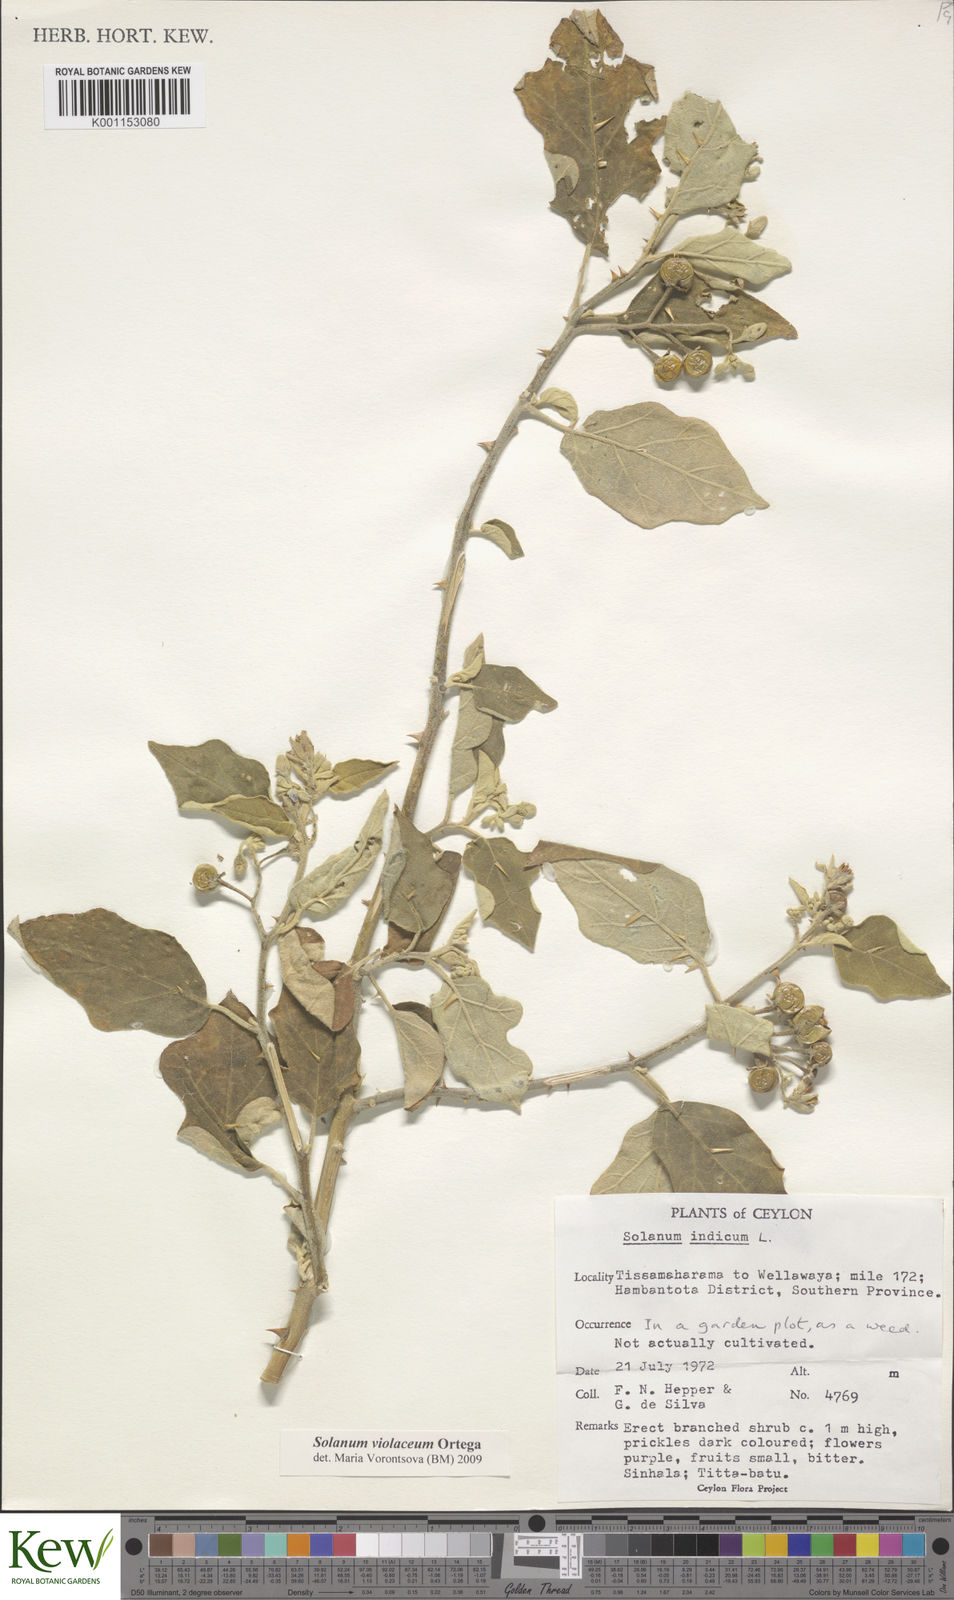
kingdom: Plantae
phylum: Tracheophyta
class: Magnoliopsida
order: Solanales
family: Solanaceae
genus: Solanum
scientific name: Solanum violaceum
